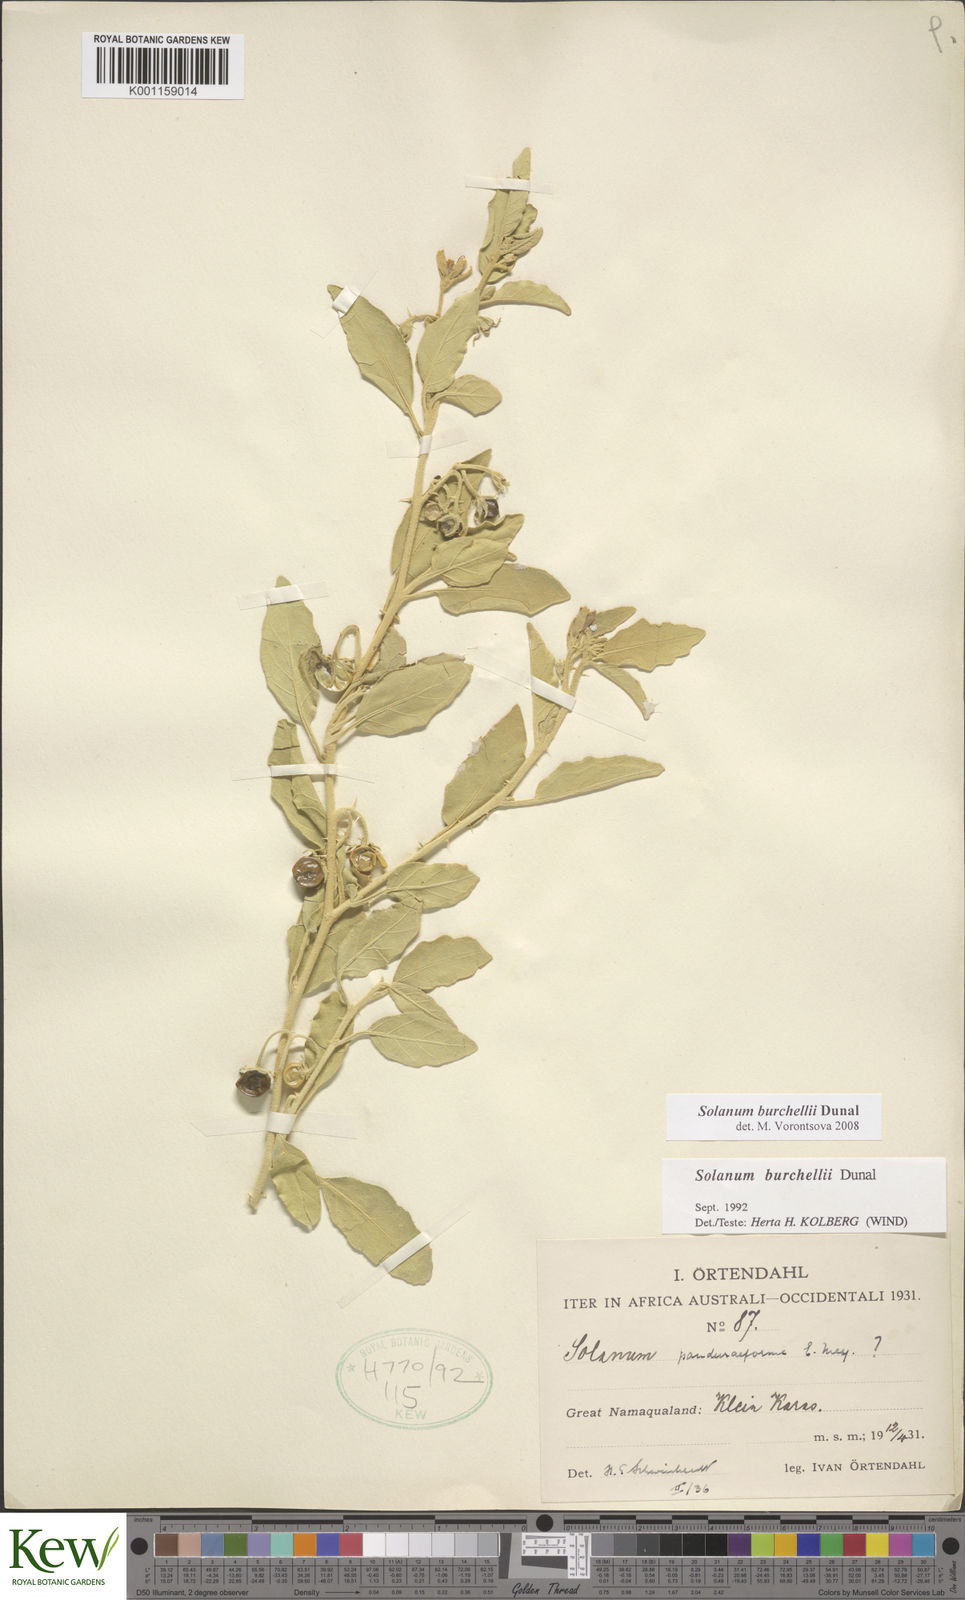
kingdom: Plantae
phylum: Tracheophyta
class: Magnoliopsida
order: Solanales
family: Solanaceae
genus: Solanum
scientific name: Solanum burchellii
